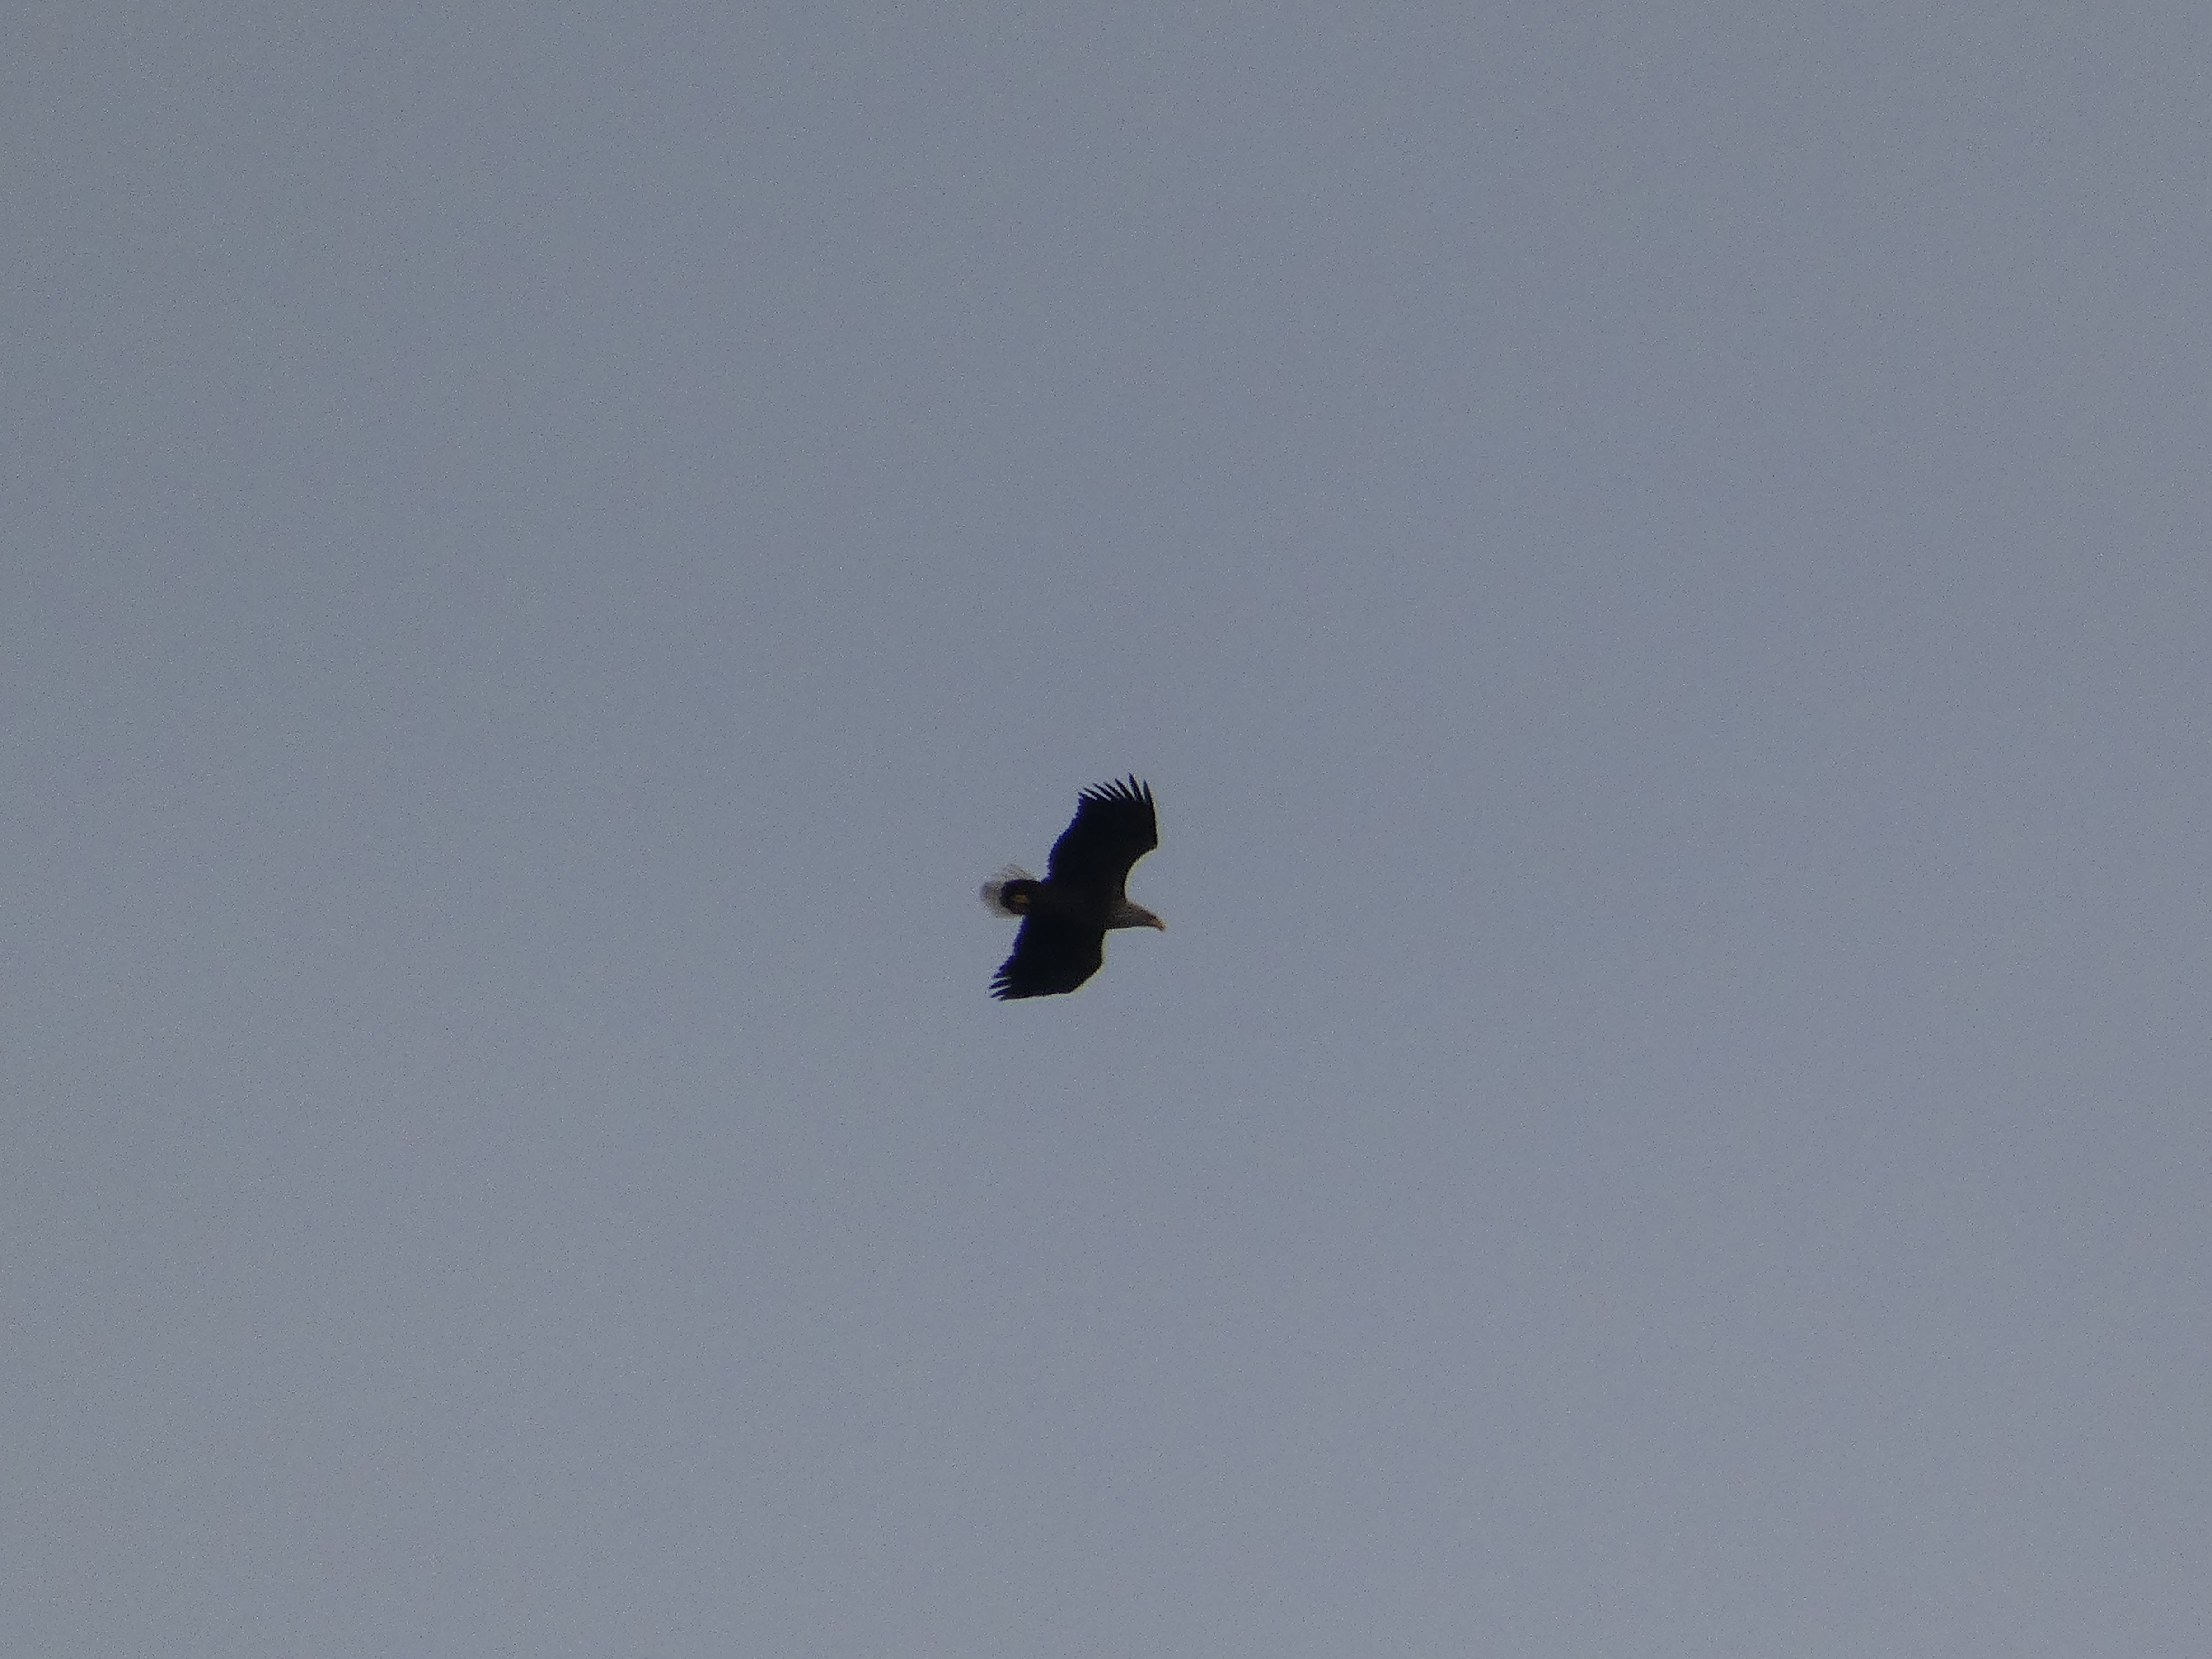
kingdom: Animalia
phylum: Chordata
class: Aves
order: Accipitriformes
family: Accipitridae
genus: Haliaeetus
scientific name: Haliaeetus albicilla
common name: Havørn
